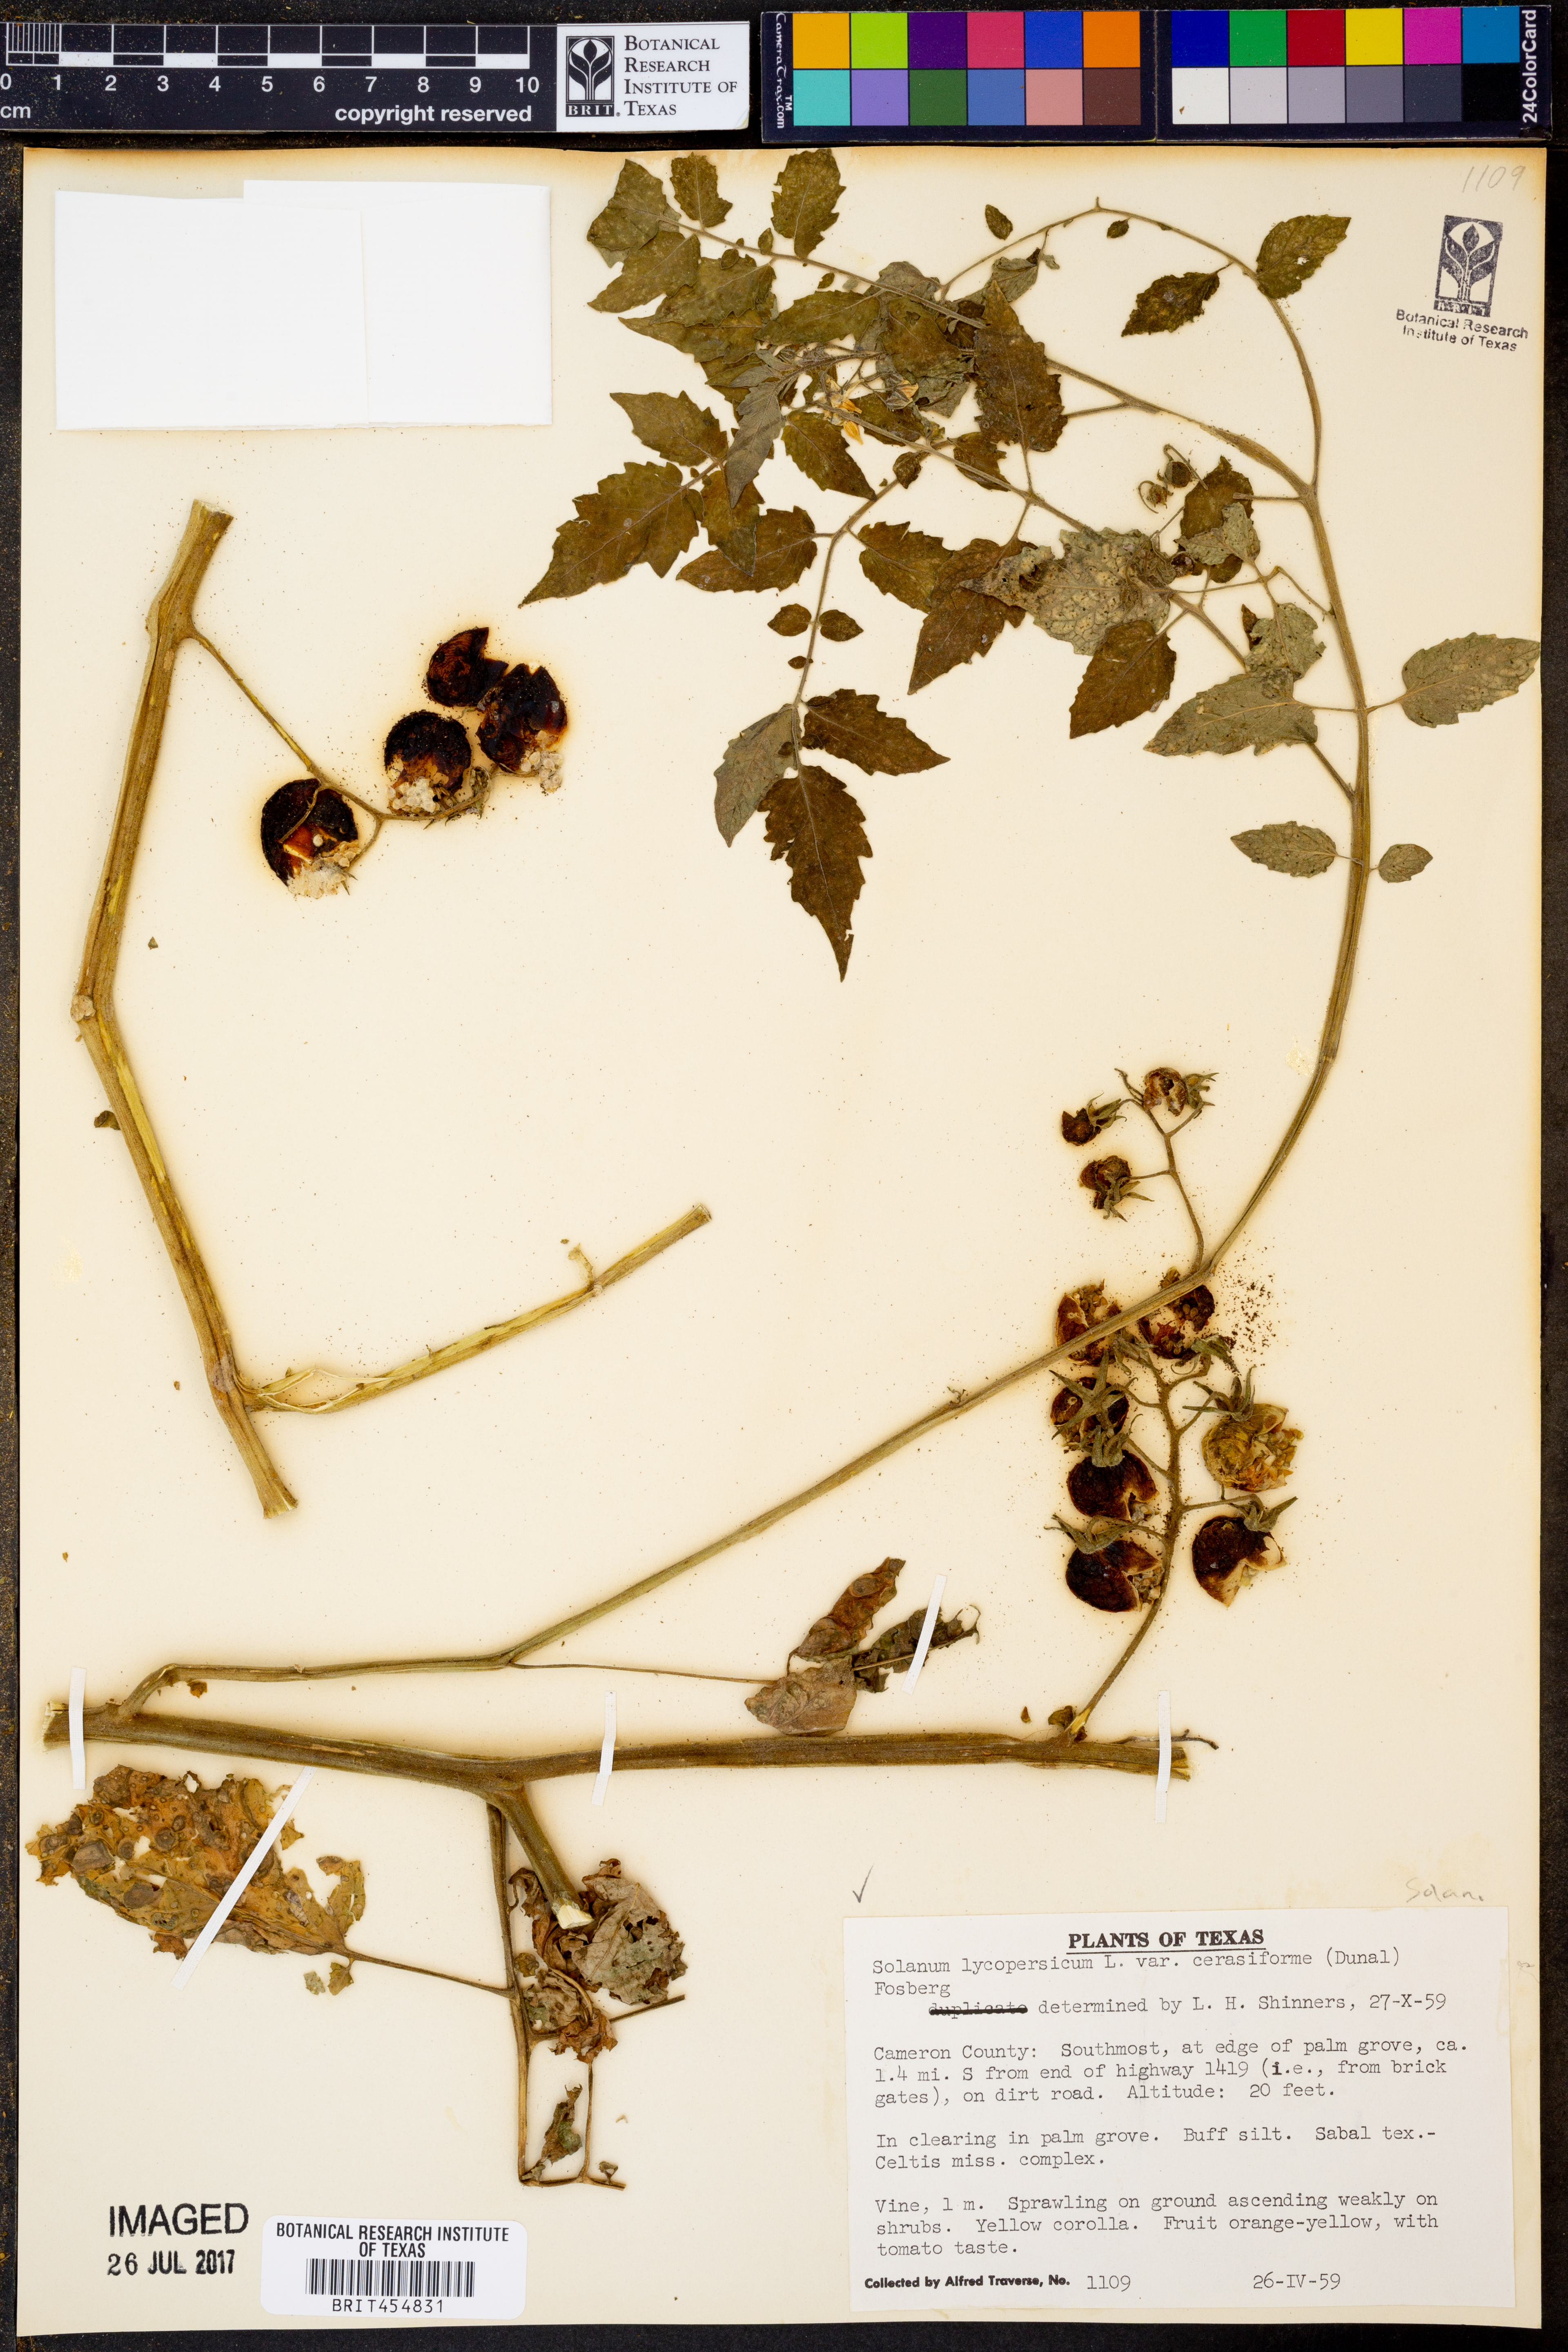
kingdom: Plantae
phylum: Tracheophyta
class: Magnoliopsida
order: Solanales
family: Solanaceae
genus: Solanum
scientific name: Solanum lycopersicum
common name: Garden tomato
